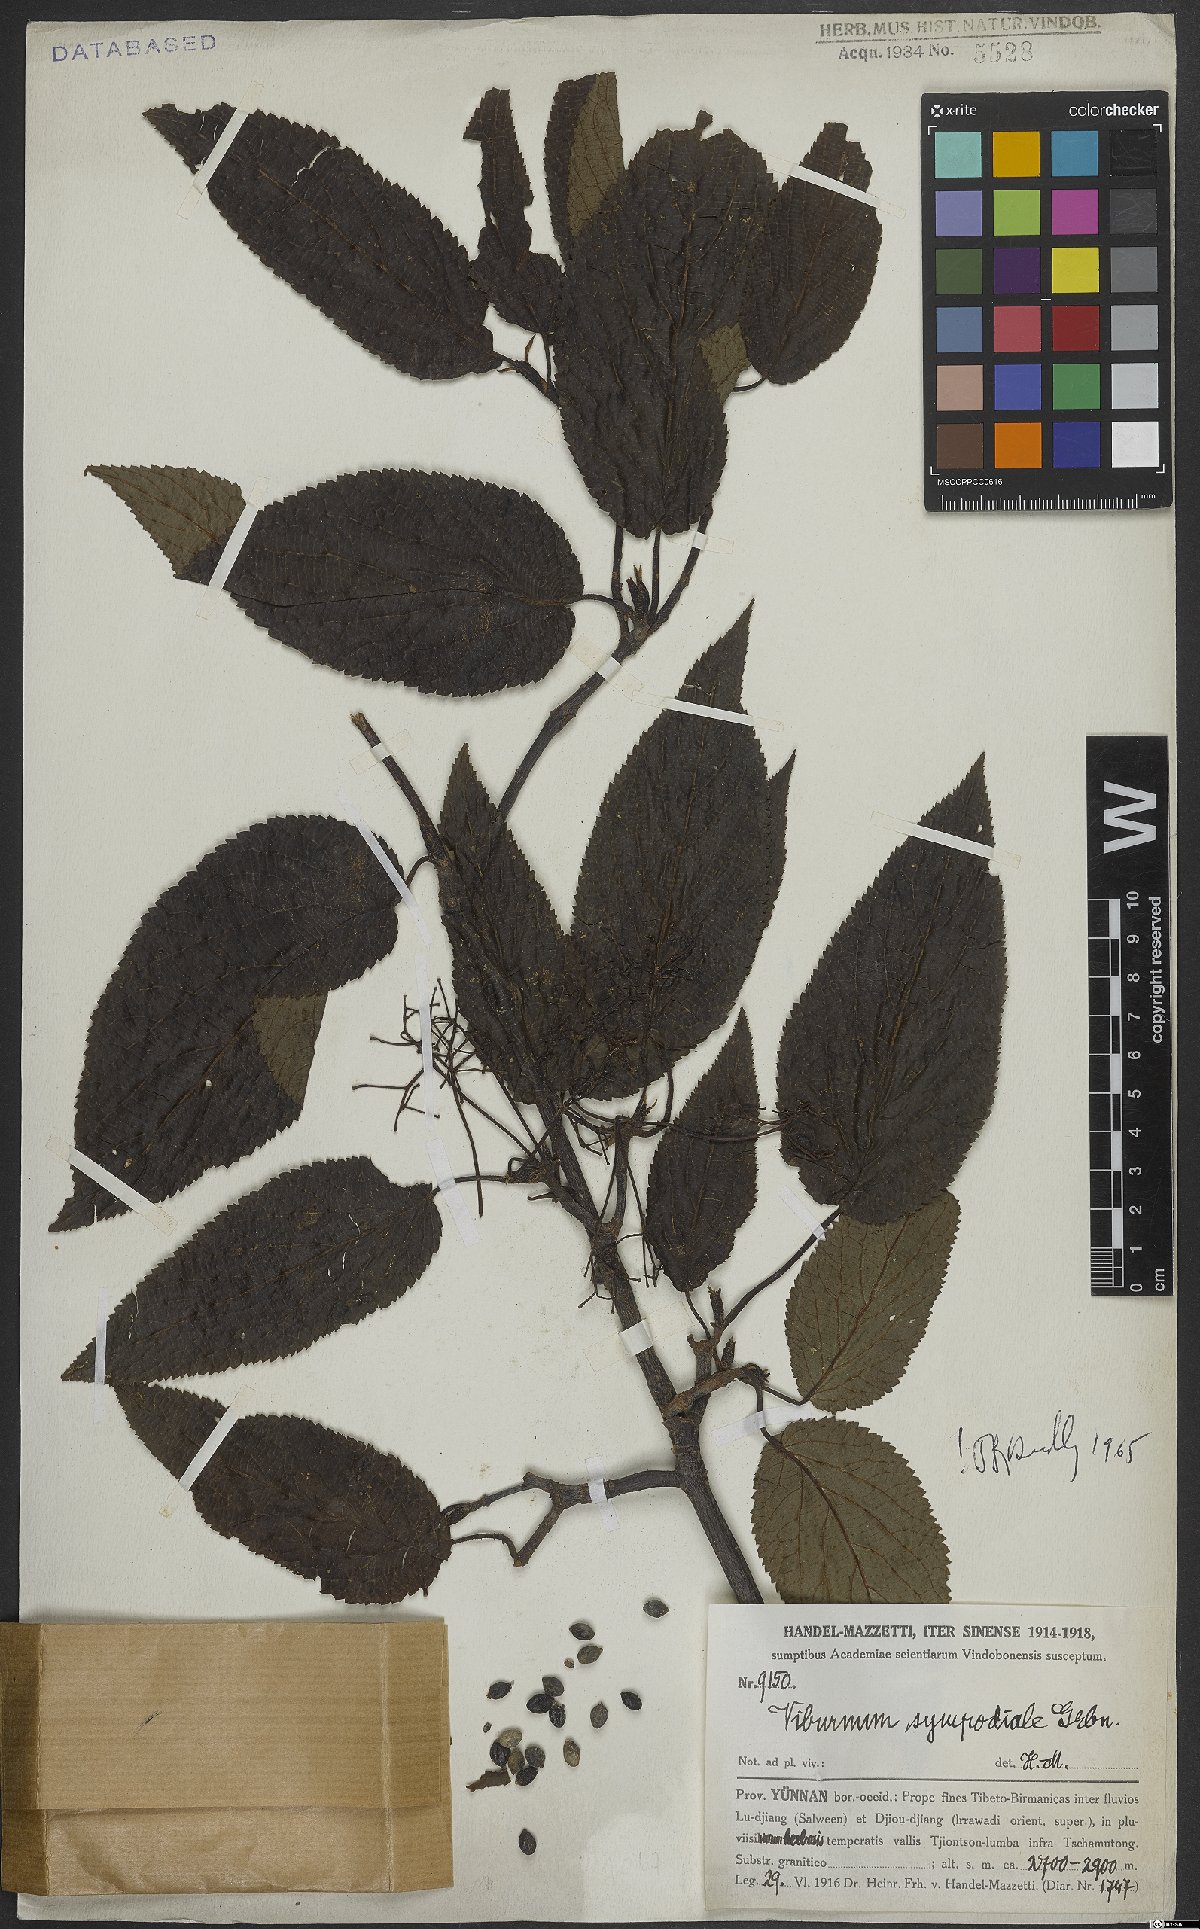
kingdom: Plantae
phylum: Tracheophyta
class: Magnoliopsida
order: Dipsacales
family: Viburnaceae
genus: Viburnum
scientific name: Viburnum sympodiale
